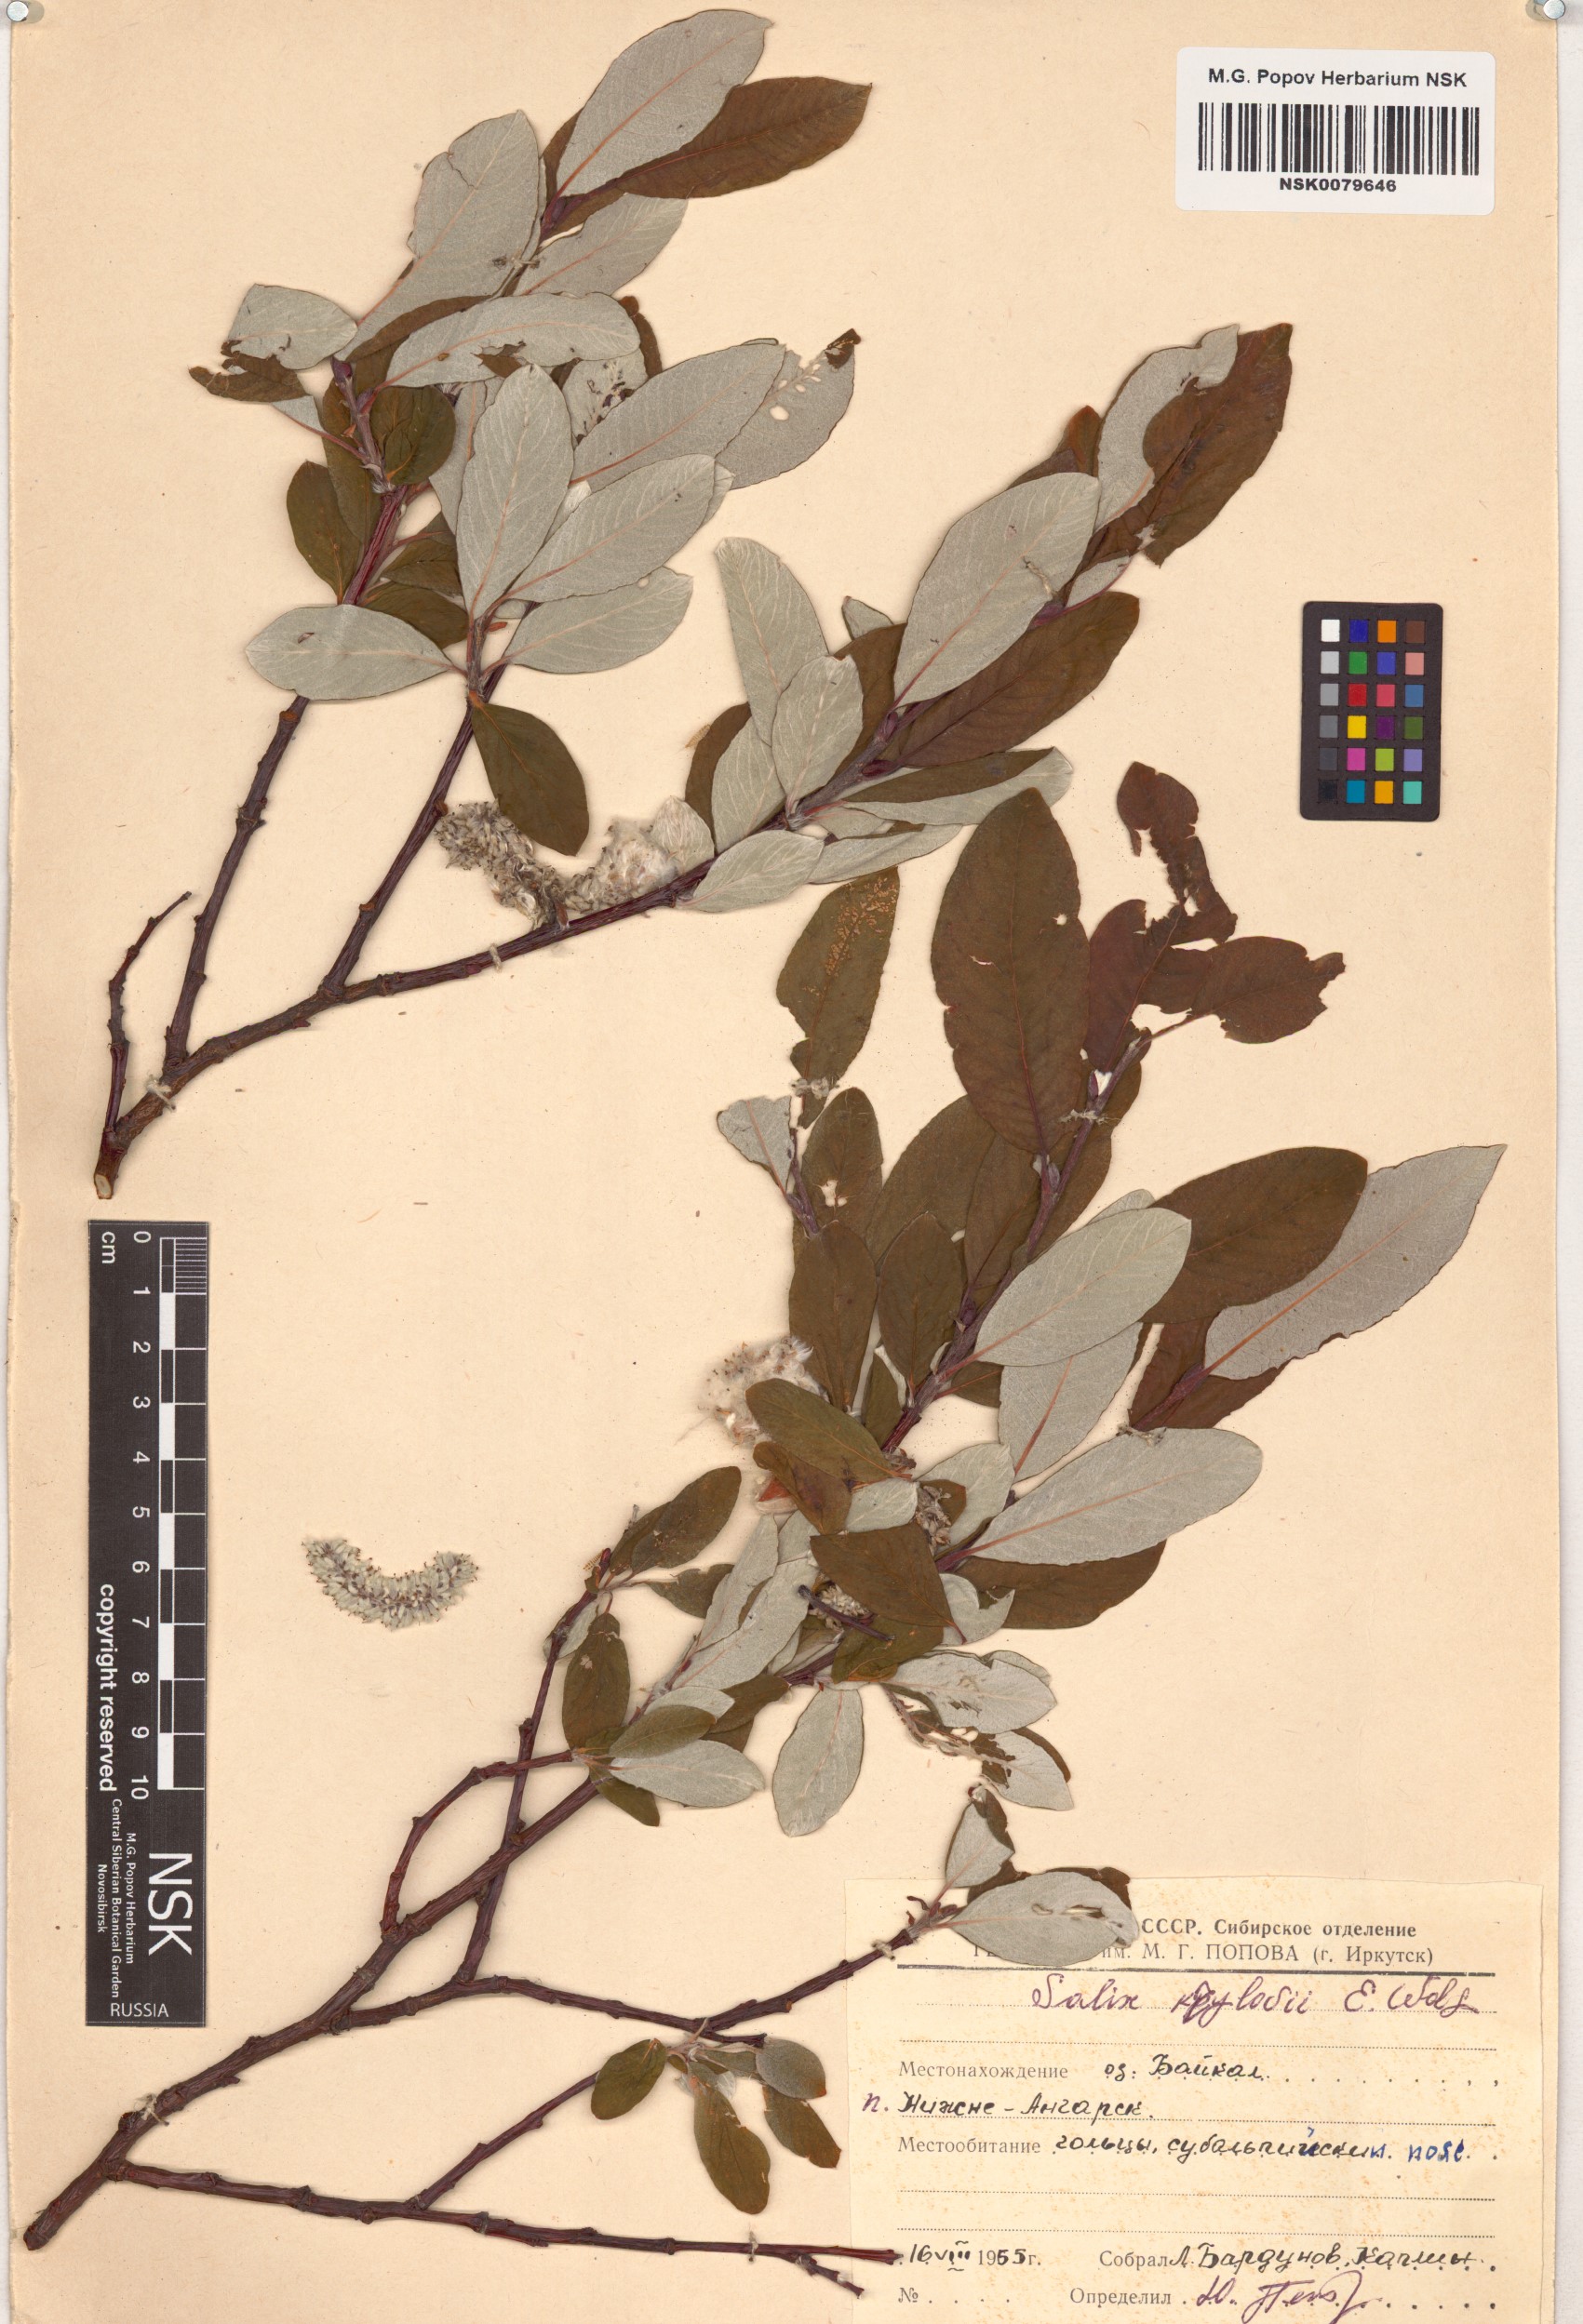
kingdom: Plantae
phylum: Tracheophyta
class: Magnoliopsida
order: Malpighiales
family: Salicaceae
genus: Salix
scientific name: Salix krylovii
